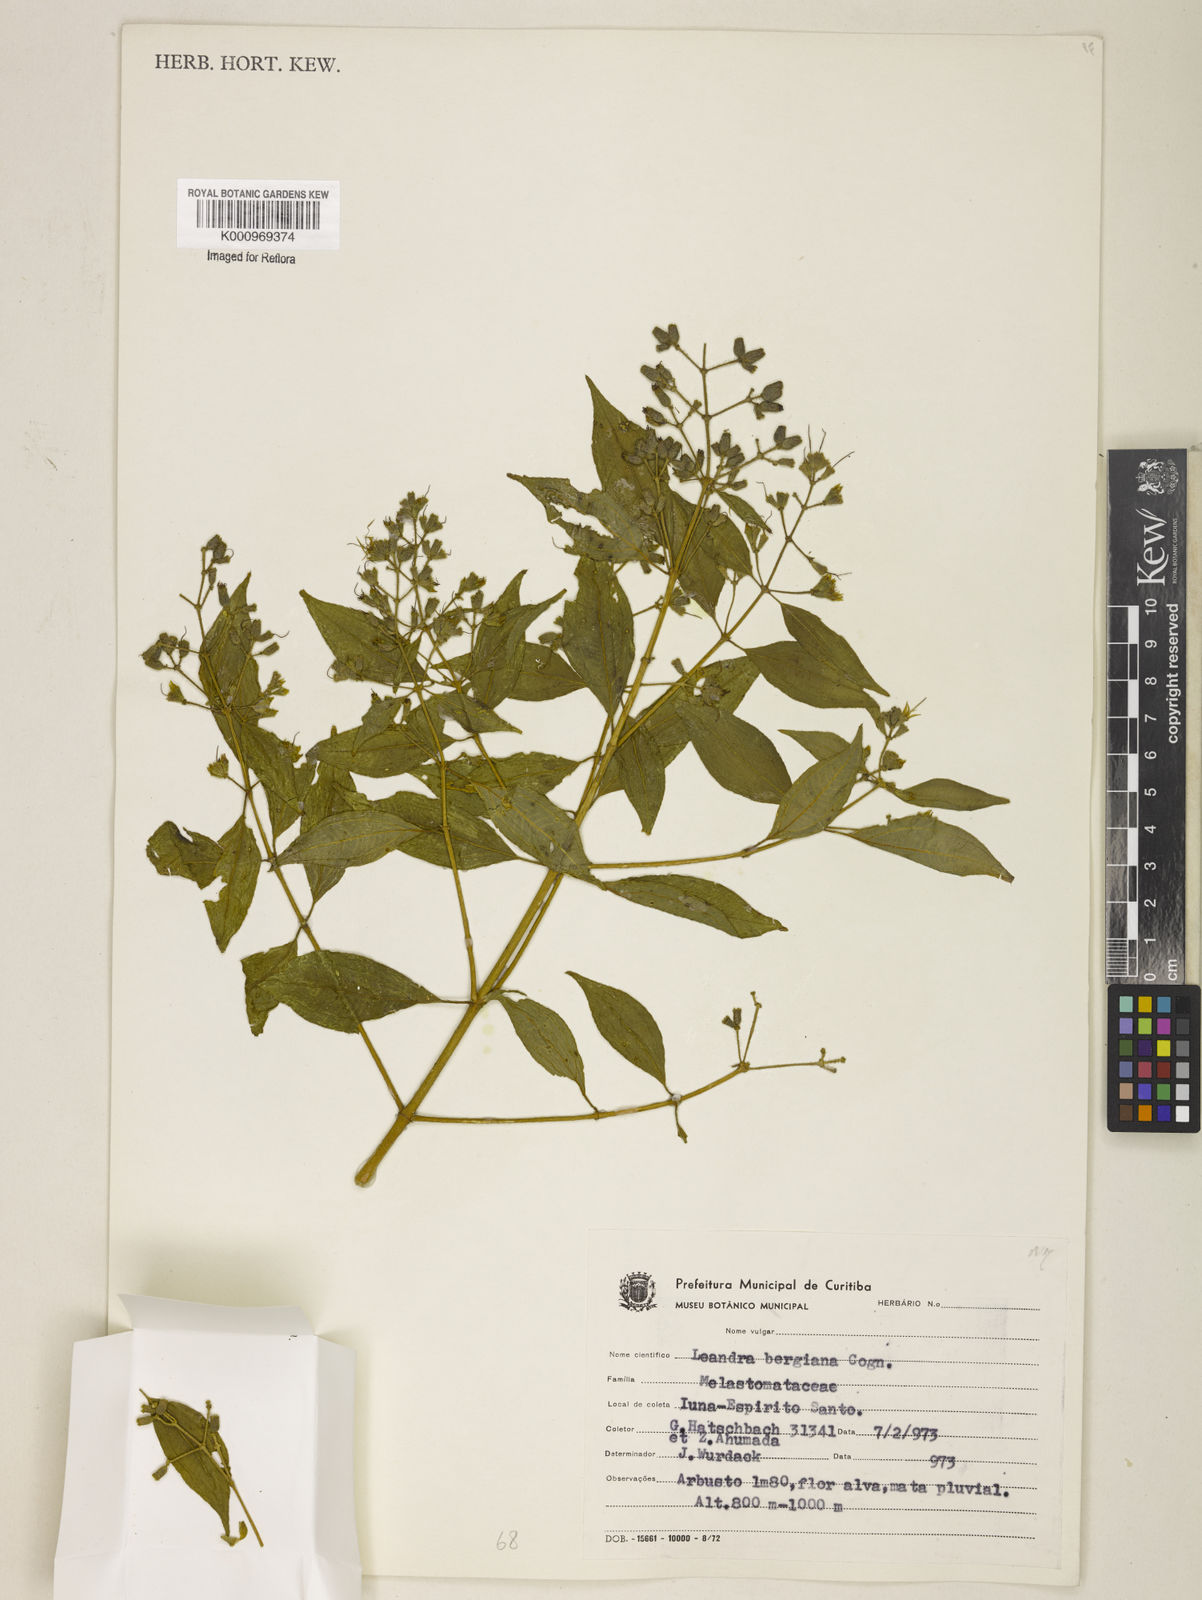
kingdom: Plantae
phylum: Tracheophyta
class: Magnoliopsida
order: Myrtales
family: Melastomataceae
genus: Miconia
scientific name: Miconia dubia
